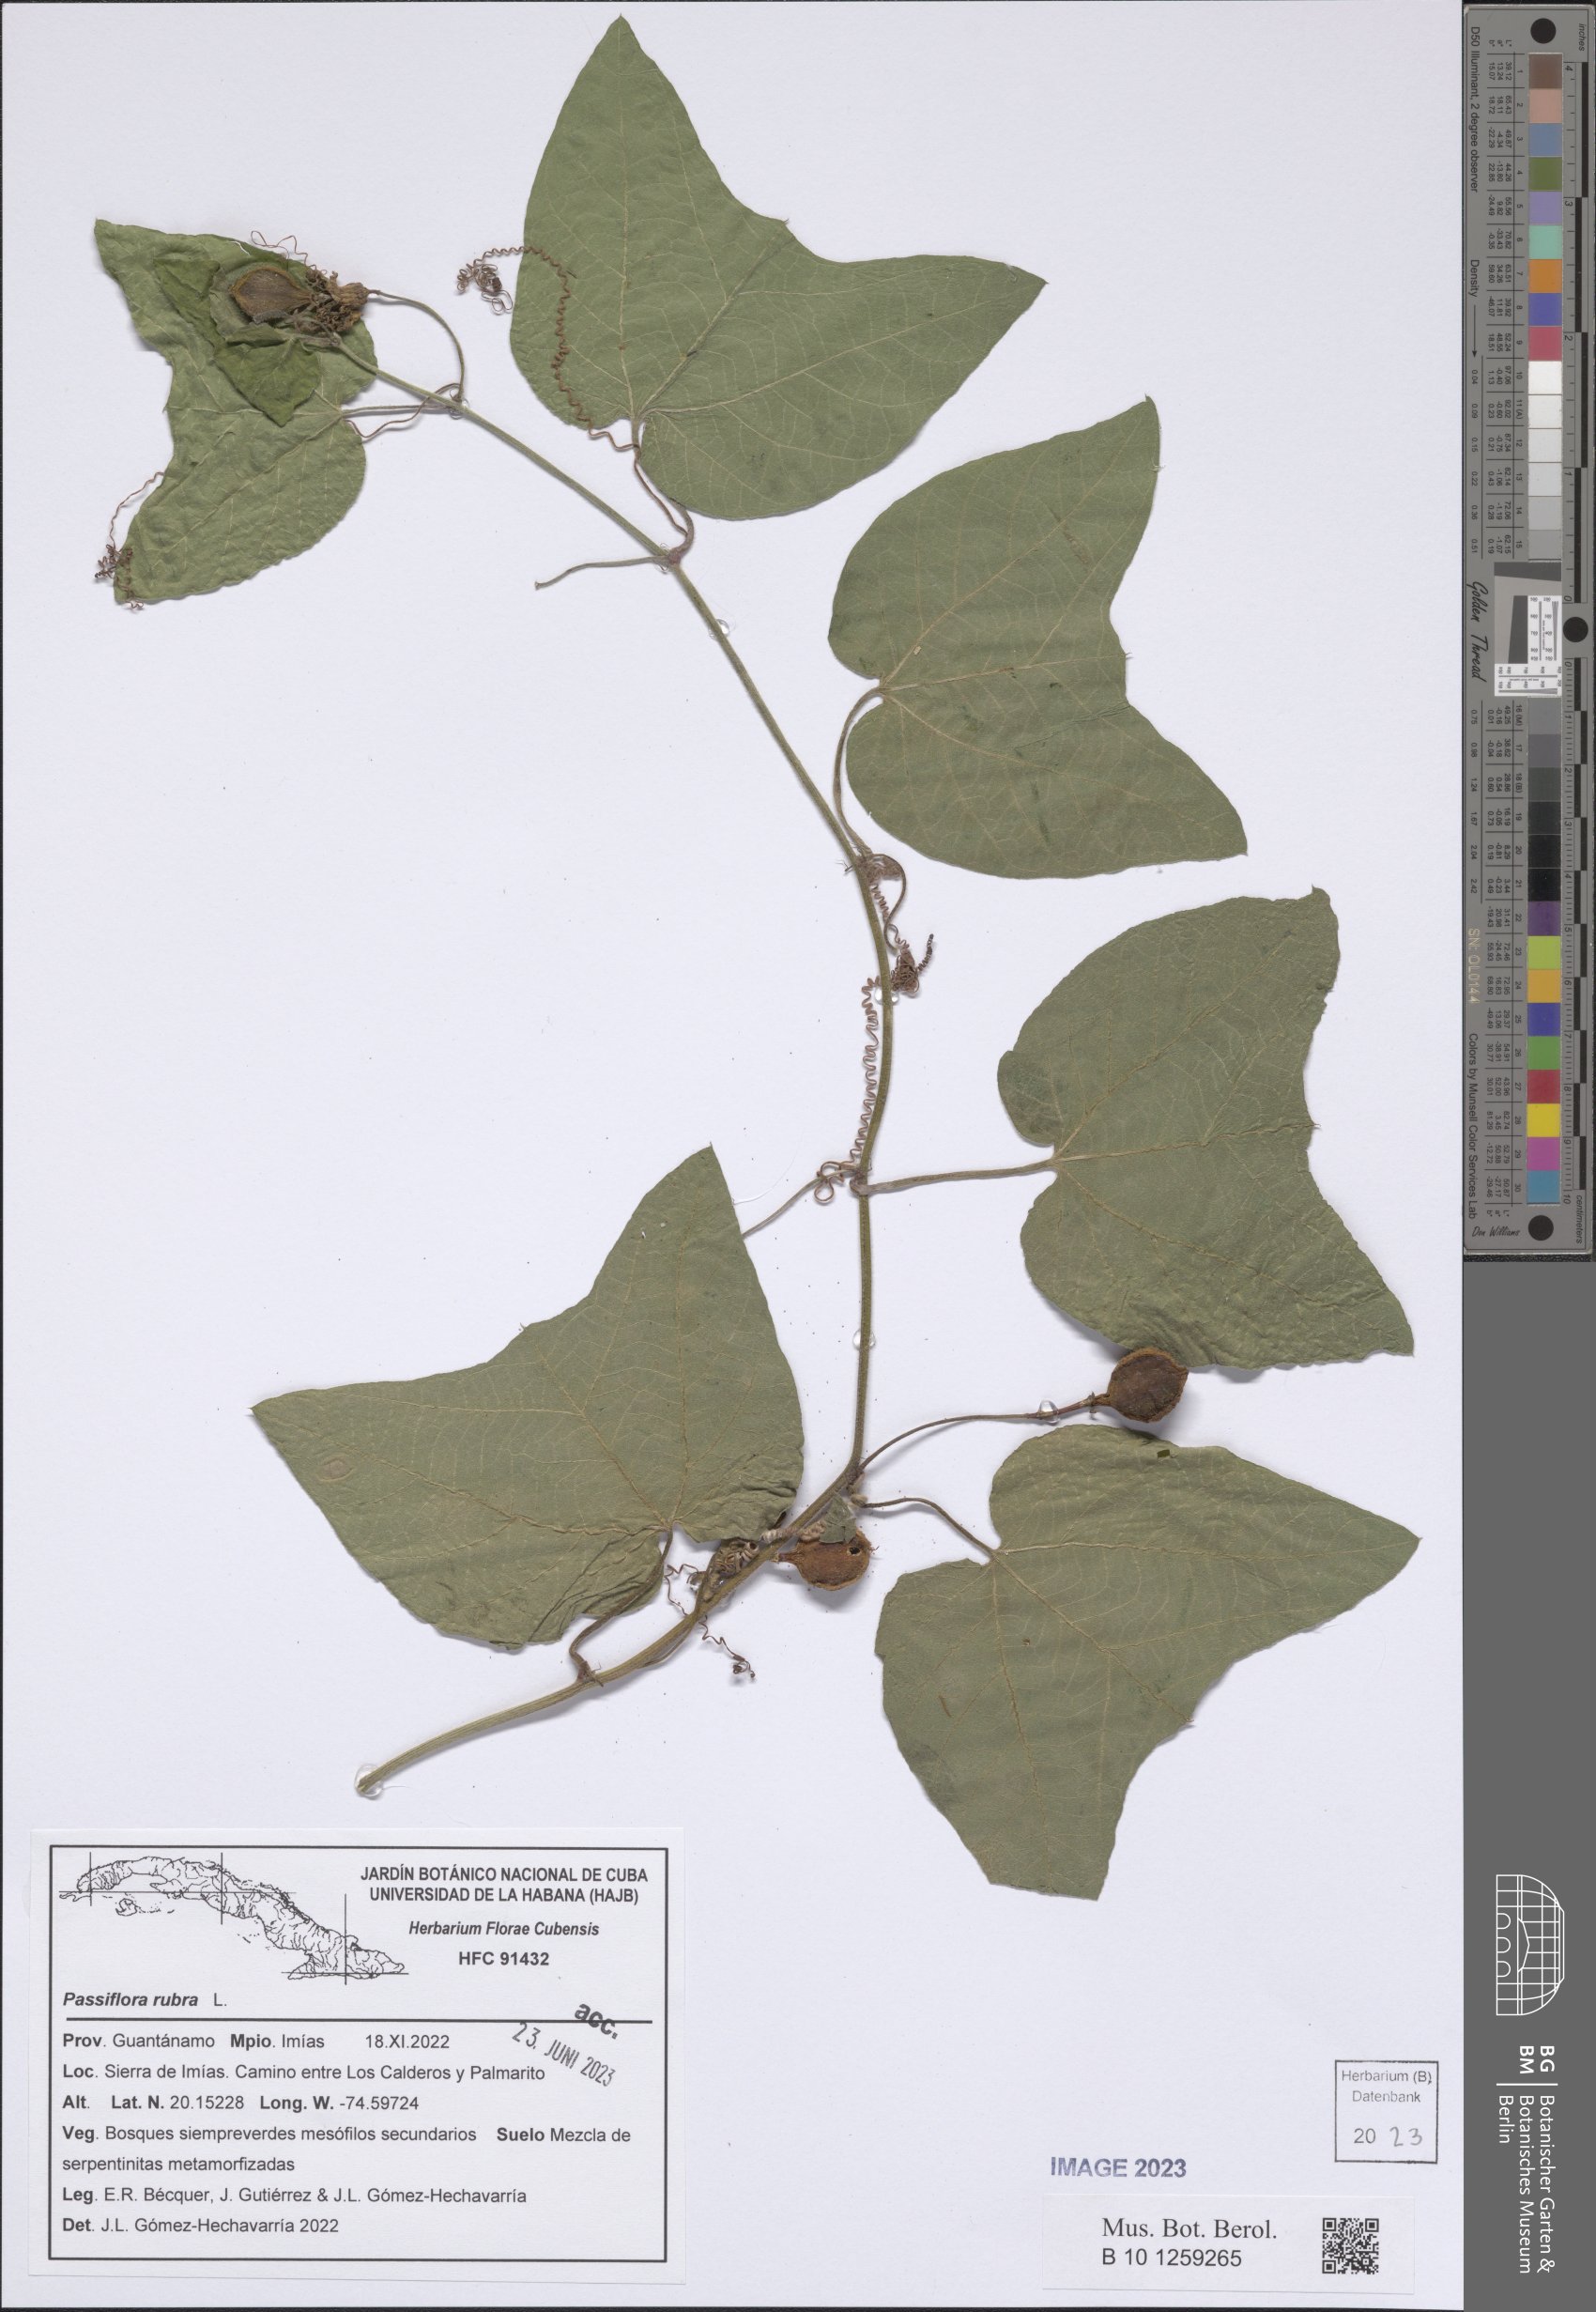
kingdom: Plantae
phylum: Tracheophyta
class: Magnoliopsida
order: Malpighiales
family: Passifloraceae
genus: Passiflora
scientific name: Passiflora rubra
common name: Snakeberry vine
